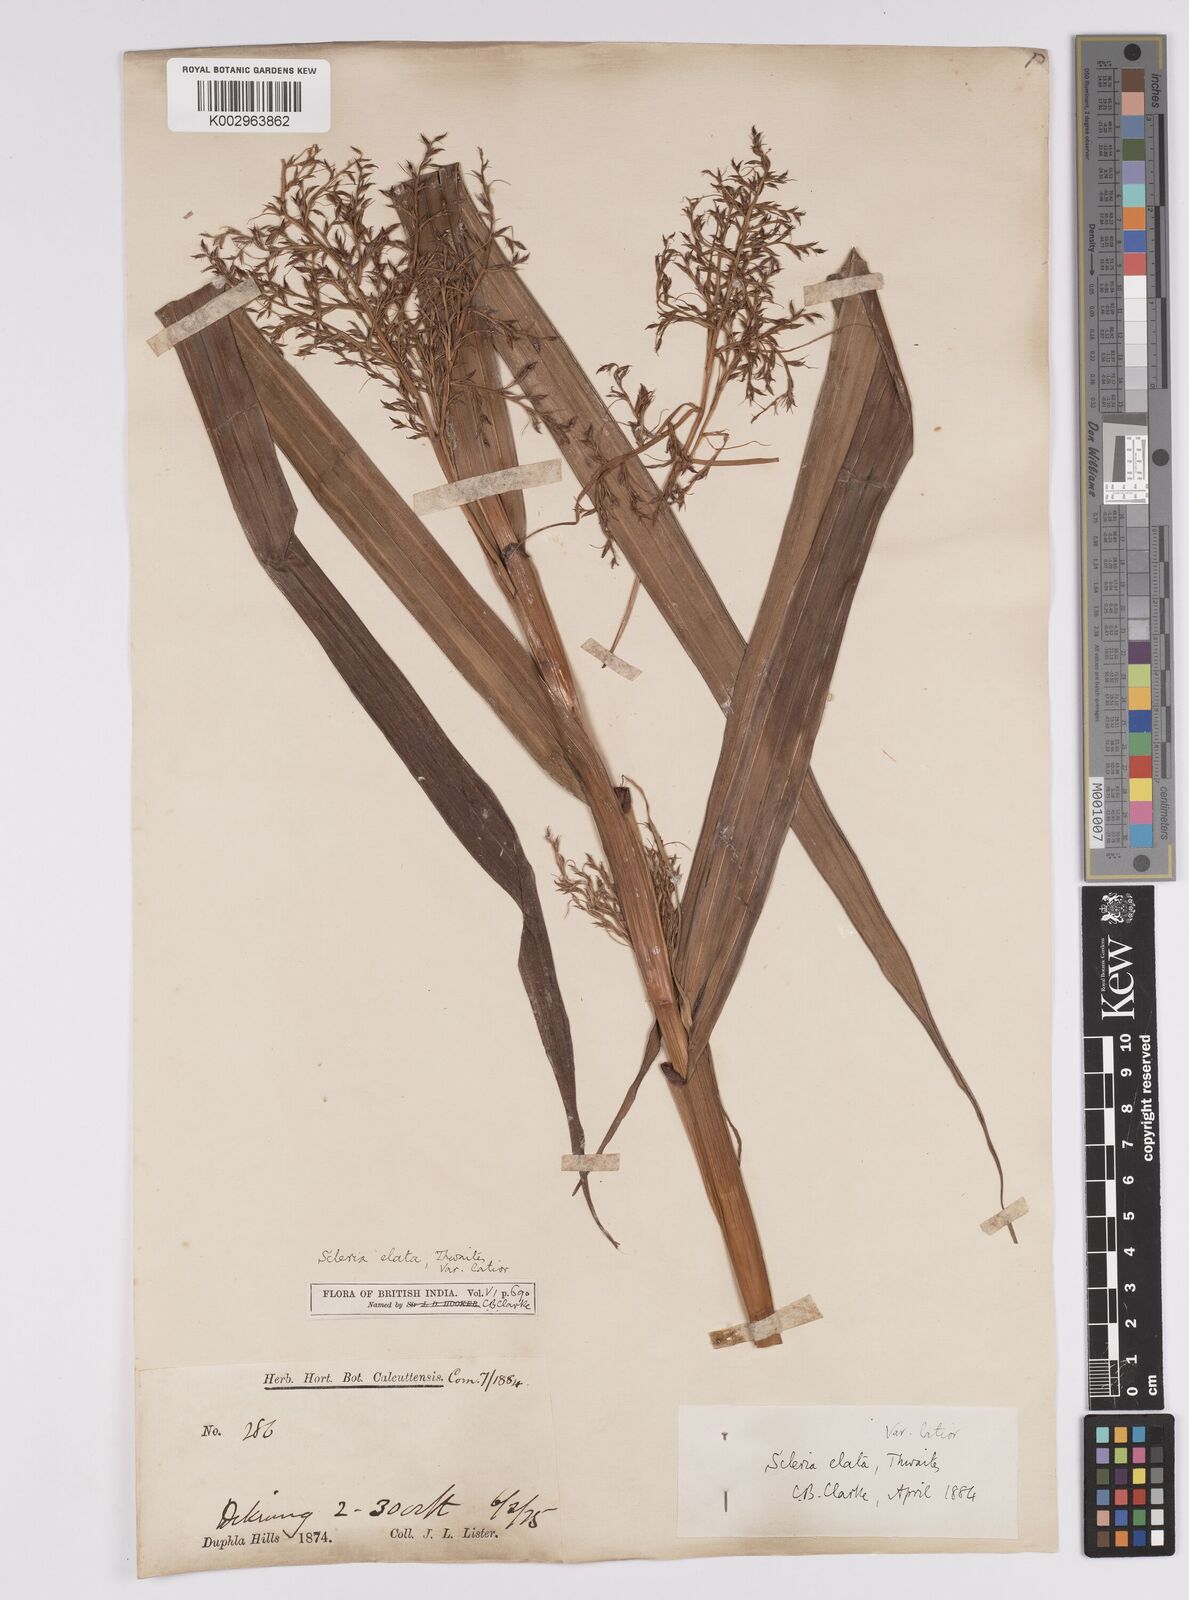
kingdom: Plantae
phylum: Tracheophyta
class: Liliopsida
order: Poales
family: Cyperaceae
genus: Scleria
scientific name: Scleria terrestris
